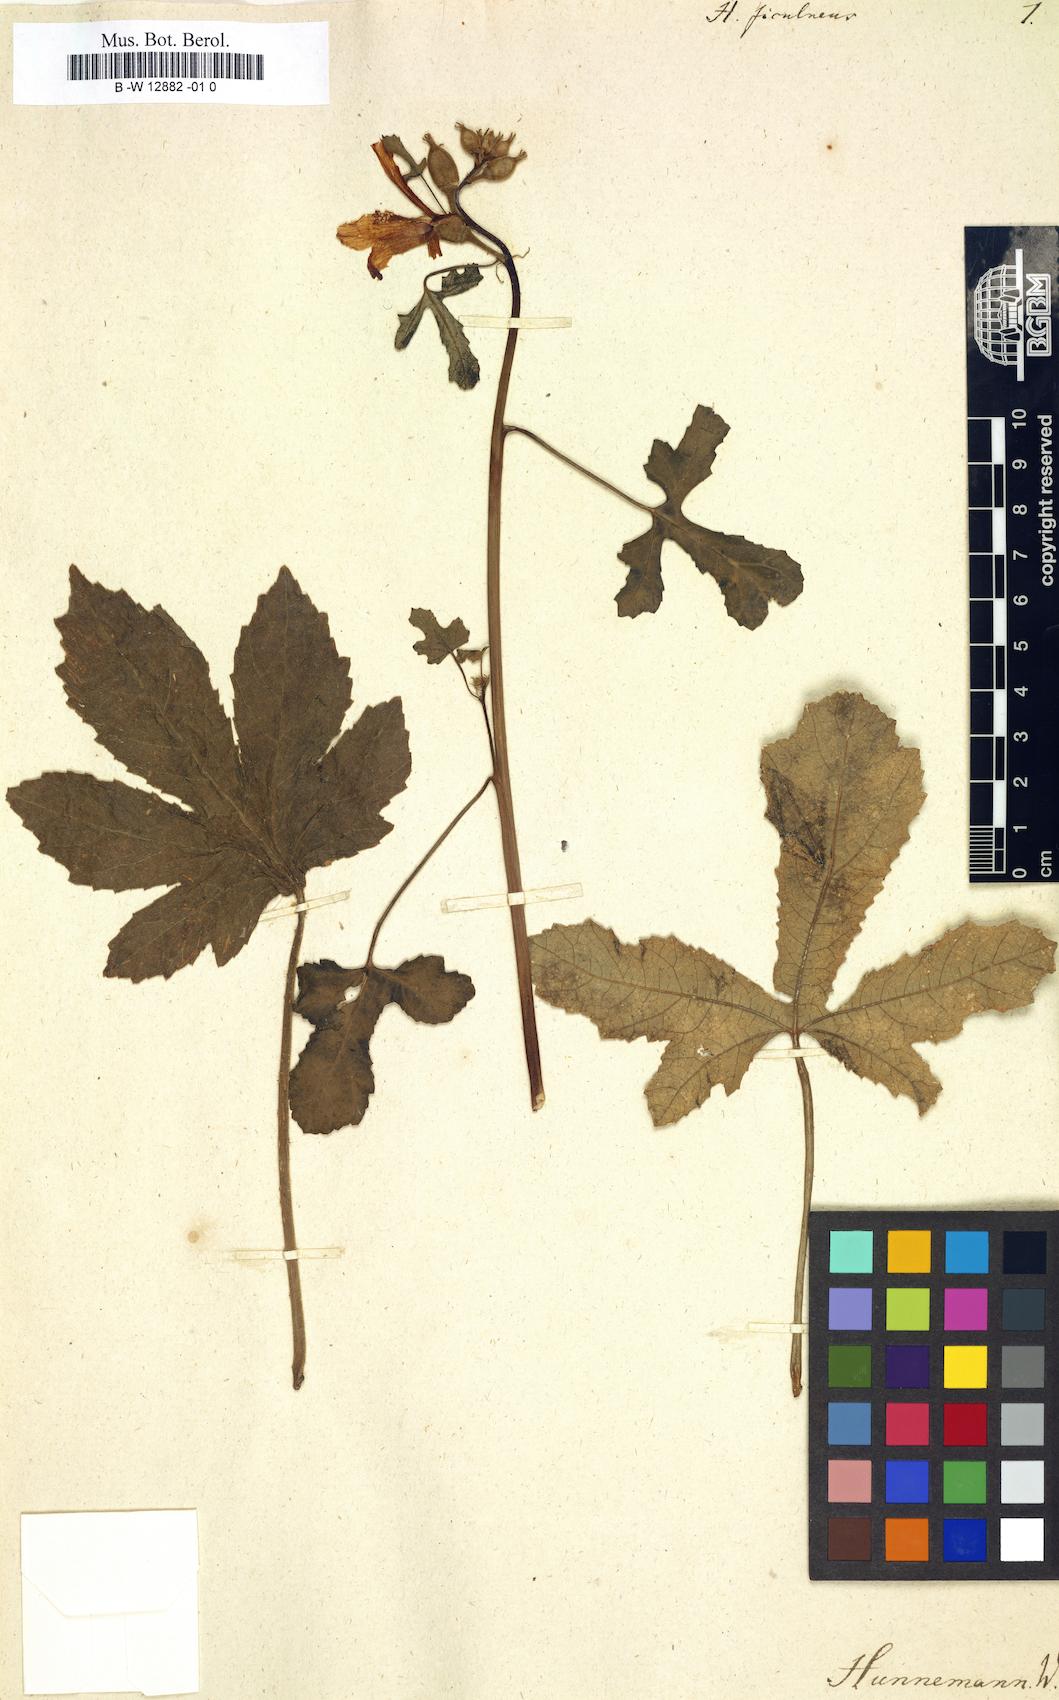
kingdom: Plantae
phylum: Tracheophyta
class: Magnoliopsida
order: Malvales
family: Malvaceae
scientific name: Malvaceae
